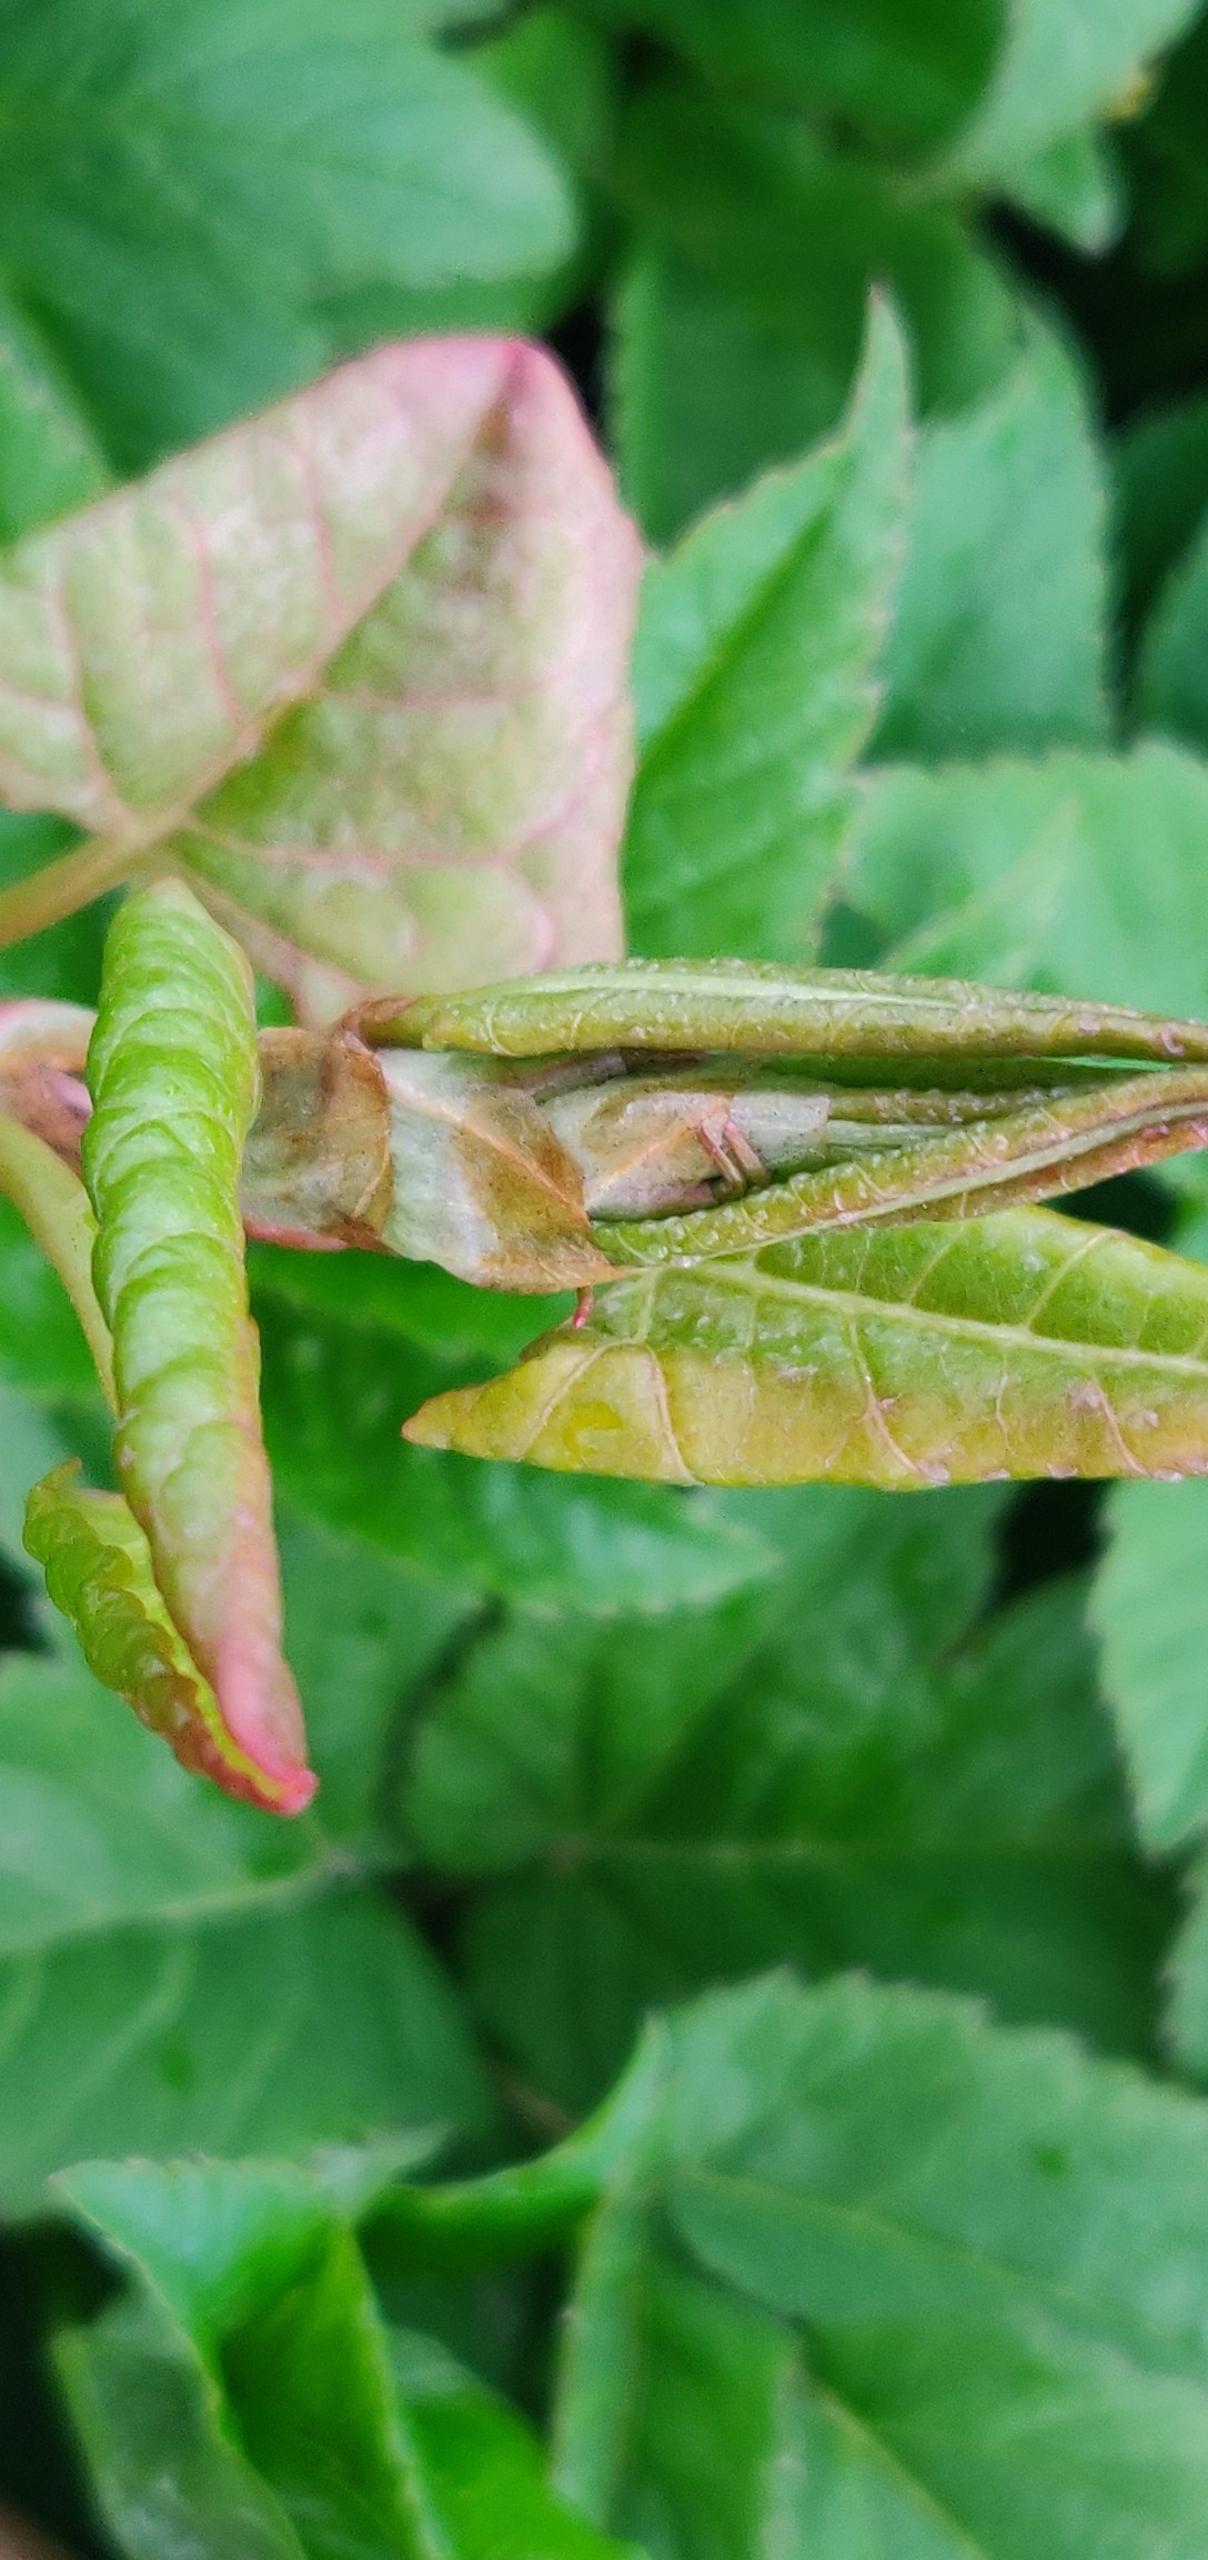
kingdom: Plantae
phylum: Tracheophyta
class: Magnoliopsida
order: Caryophyllales
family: Polygonaceae
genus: Reynoutria
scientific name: Reynoutria japonica
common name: Japan-pileurt
